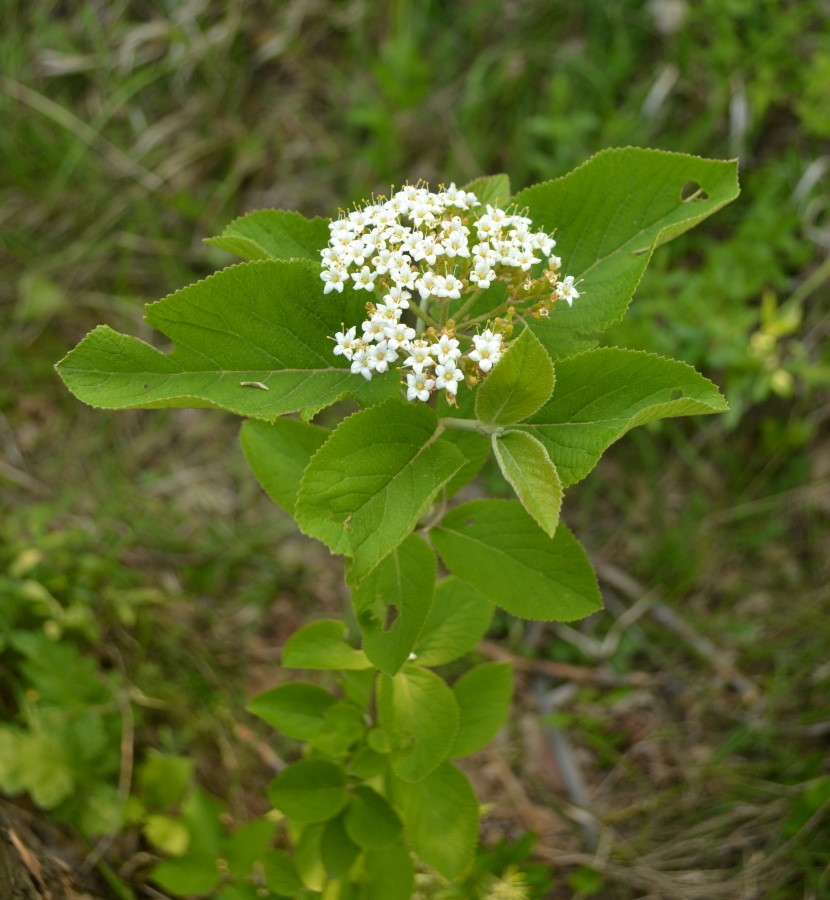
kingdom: Plantae
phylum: Tracheophyta
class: Magnoliopsida
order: Dipsacales
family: Viburnaceae
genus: Viburnum
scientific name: Viburnum lantana
